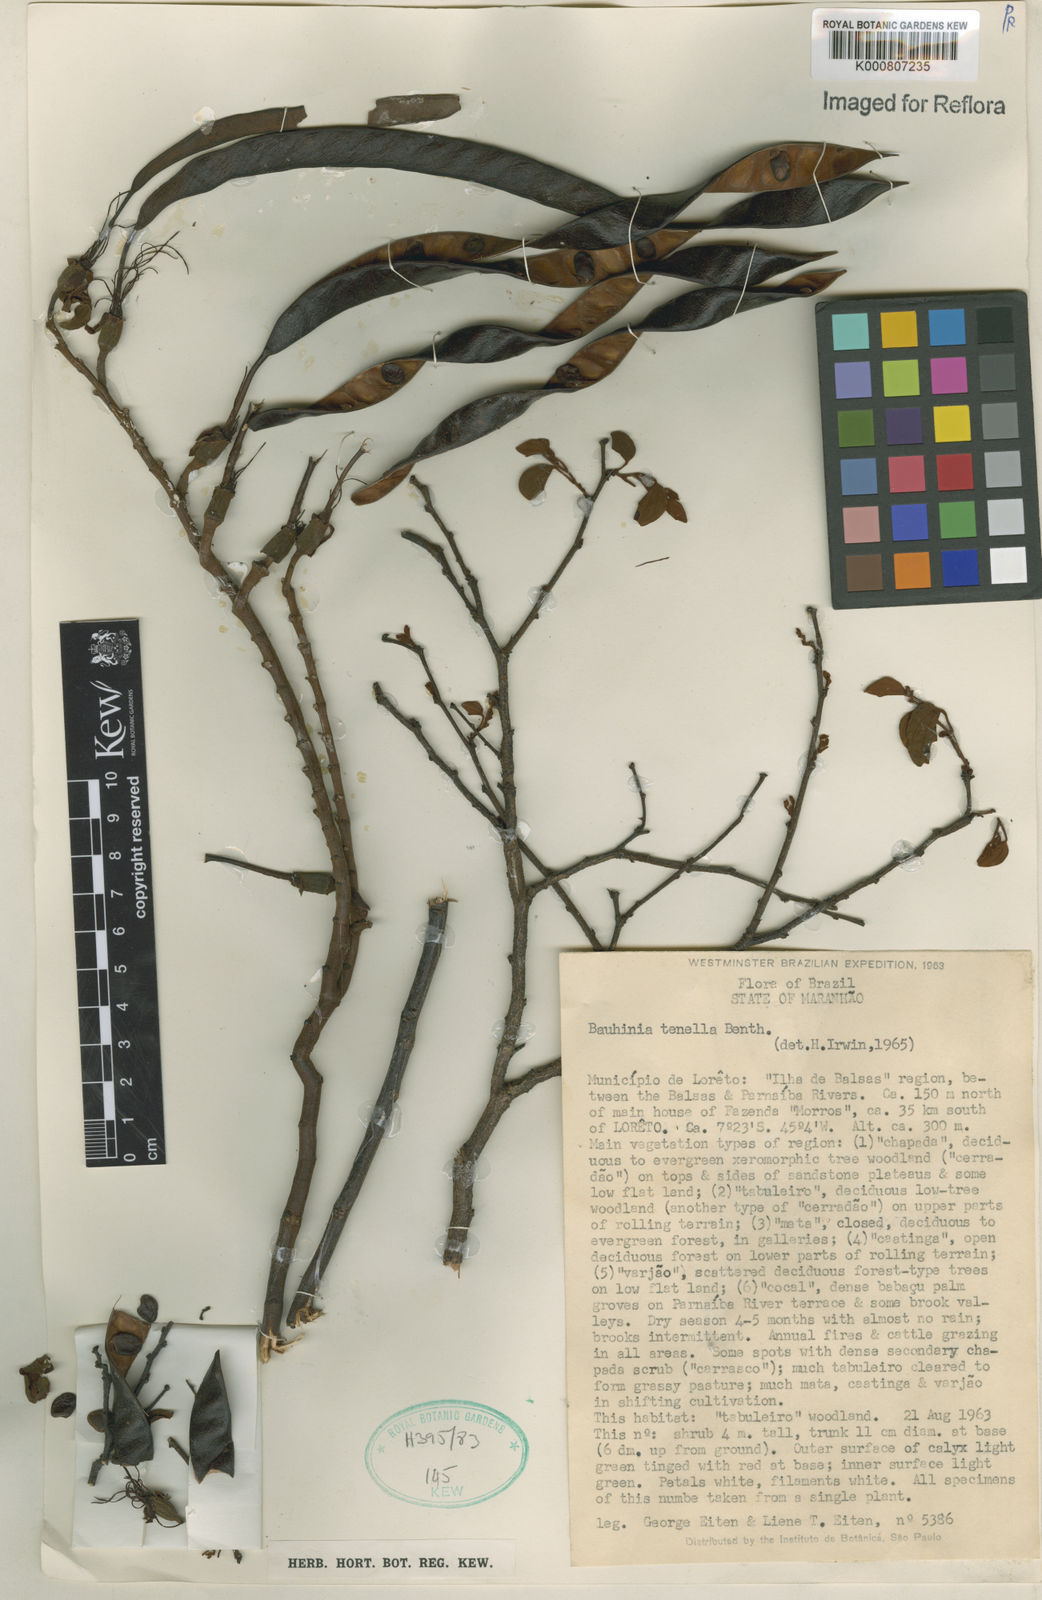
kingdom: Plantae
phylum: Tracheophyta
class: Magnoliopsida
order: Fabales
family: Fabaceae
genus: Bauhinia
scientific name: Bauhinia tenella
